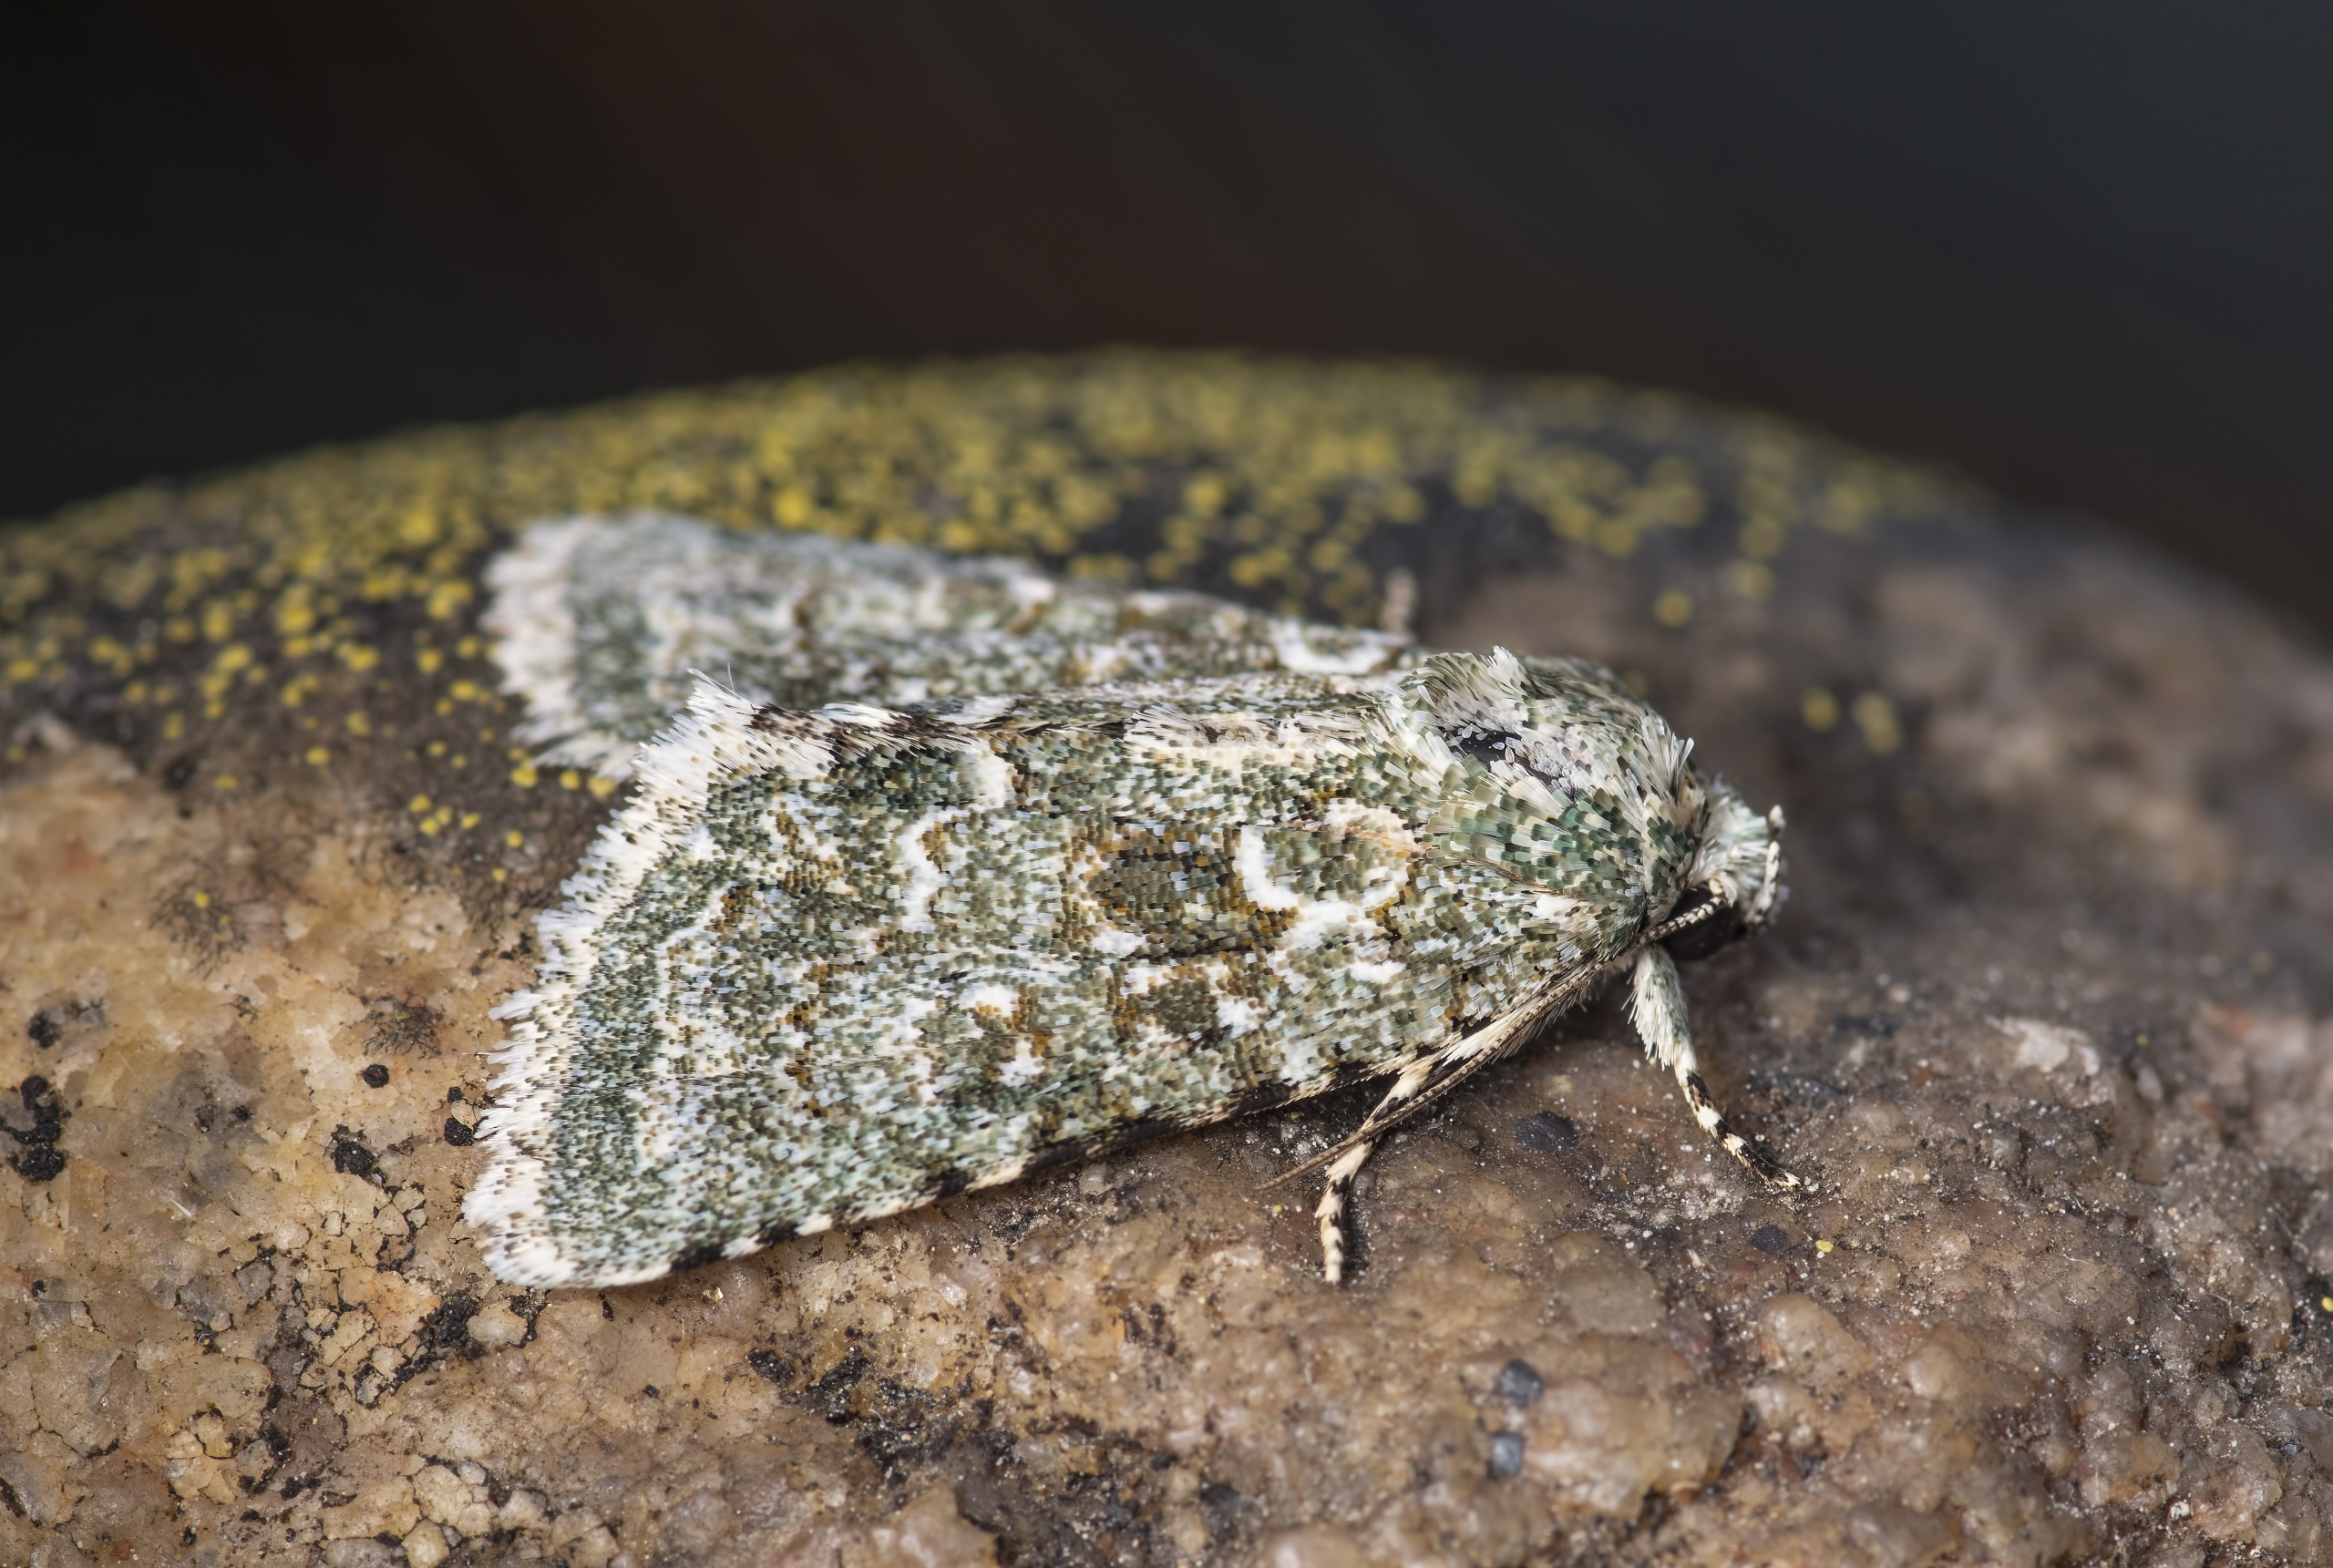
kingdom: Animalia
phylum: Arthropoda
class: Insecta
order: Lepidoptera
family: Noctuidae
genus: Nyctobrya
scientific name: Nyctobrya muralis
